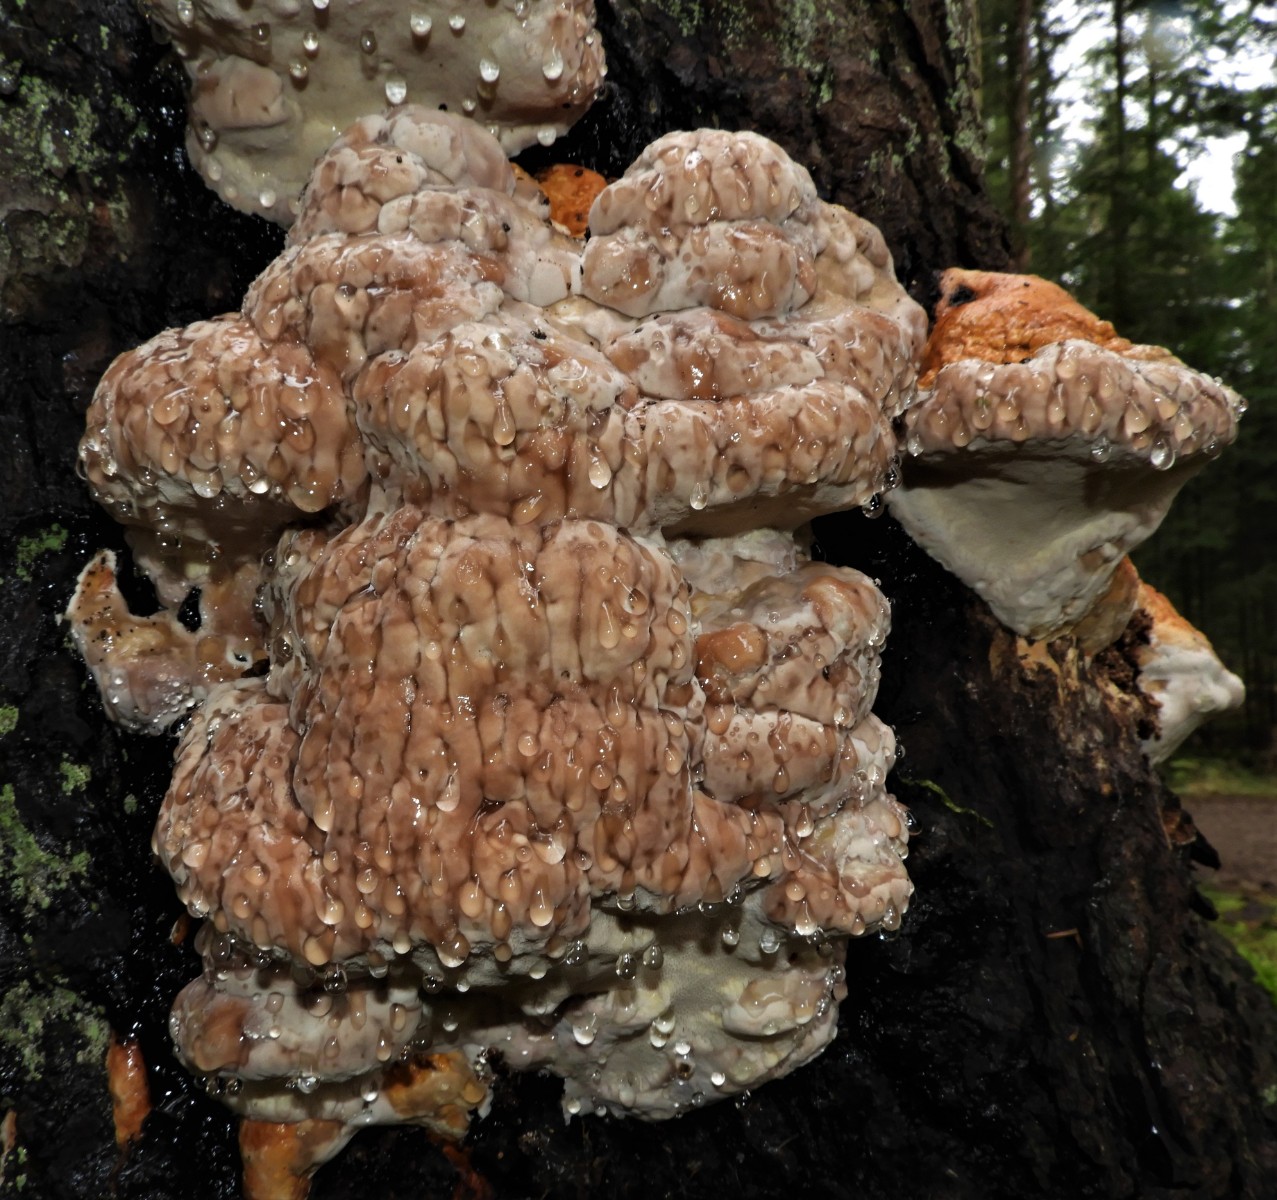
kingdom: Fungi
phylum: Basidiomycota
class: Agaricomycetes
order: Polyporales
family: Fomitopsidaceae
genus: Fomitopsis
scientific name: Fomitopsis pinicola
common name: randbæltet hovporesvamp
